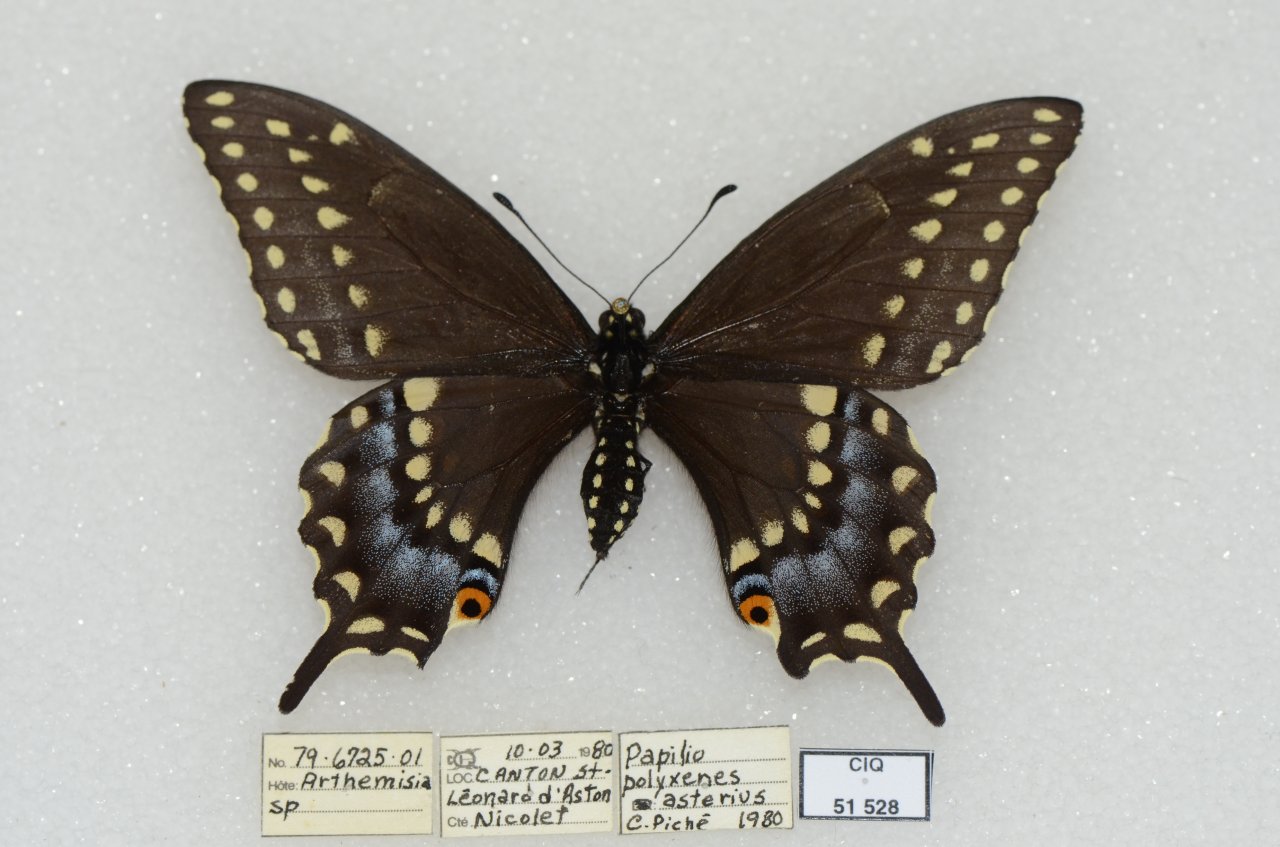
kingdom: Animalia
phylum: Arthropoda
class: Insecta
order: Lepidoptera
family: Papilionidae
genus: Papilio
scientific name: Papilio polyxenes
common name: Black Swallowtail
